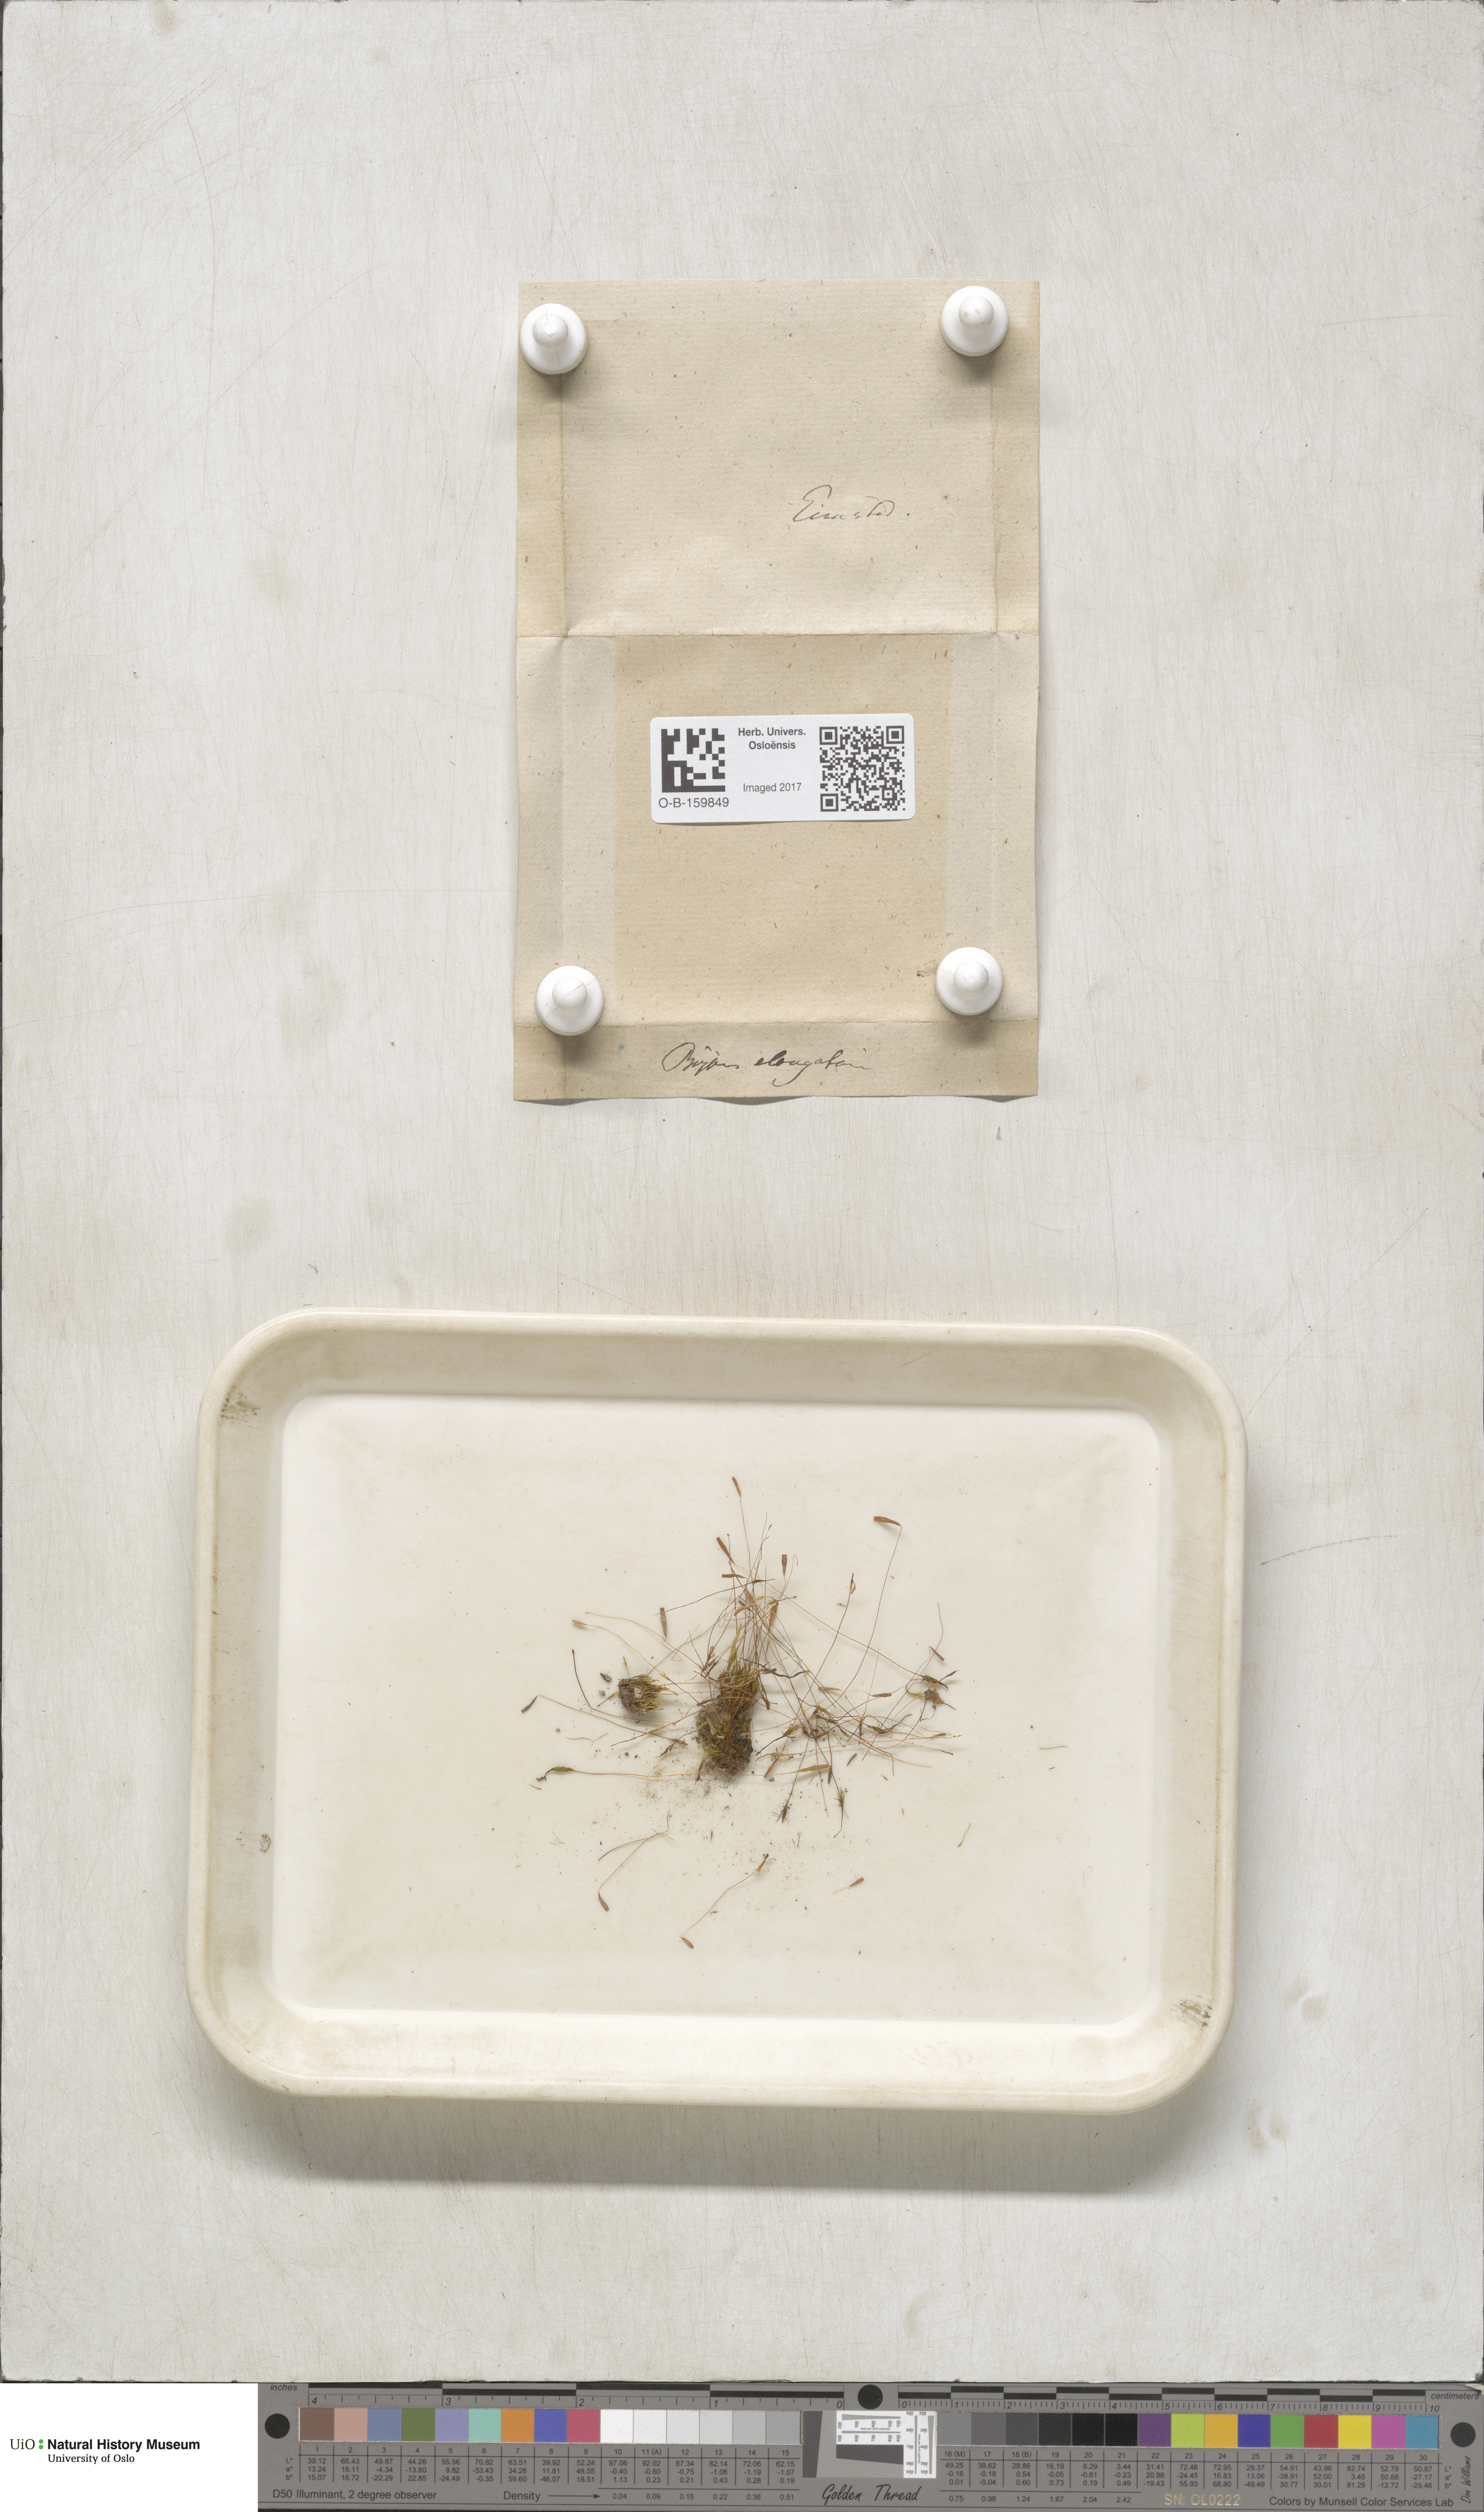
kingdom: Plantae
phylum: Bryophyta
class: Bryopsida
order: Bryales
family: Mniaceae
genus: Pohlia
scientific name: Pohlia elongata
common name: Long-fruited thread-moss
